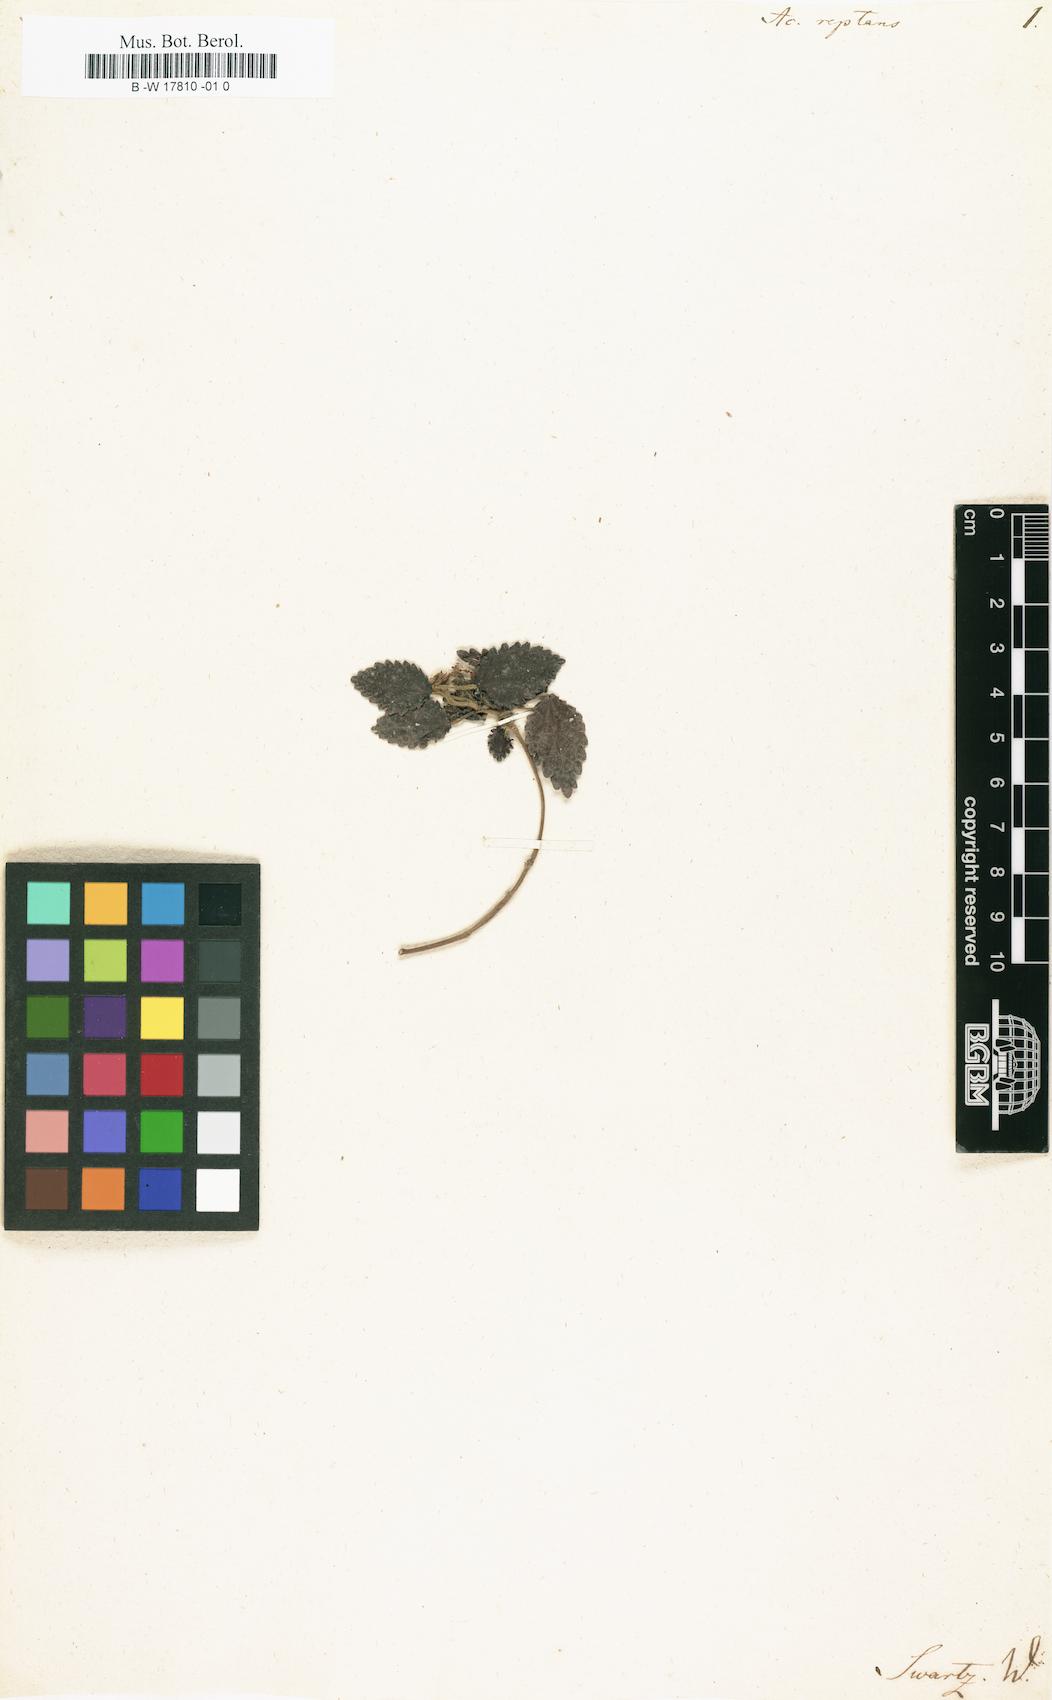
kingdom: Plantae
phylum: Tracheophyta
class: Magnoliopsida
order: Malpighiales
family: Euphorbiaceae
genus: Acalypha
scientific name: Acalypha chamaedrifolia
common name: Bastard copperleaf
